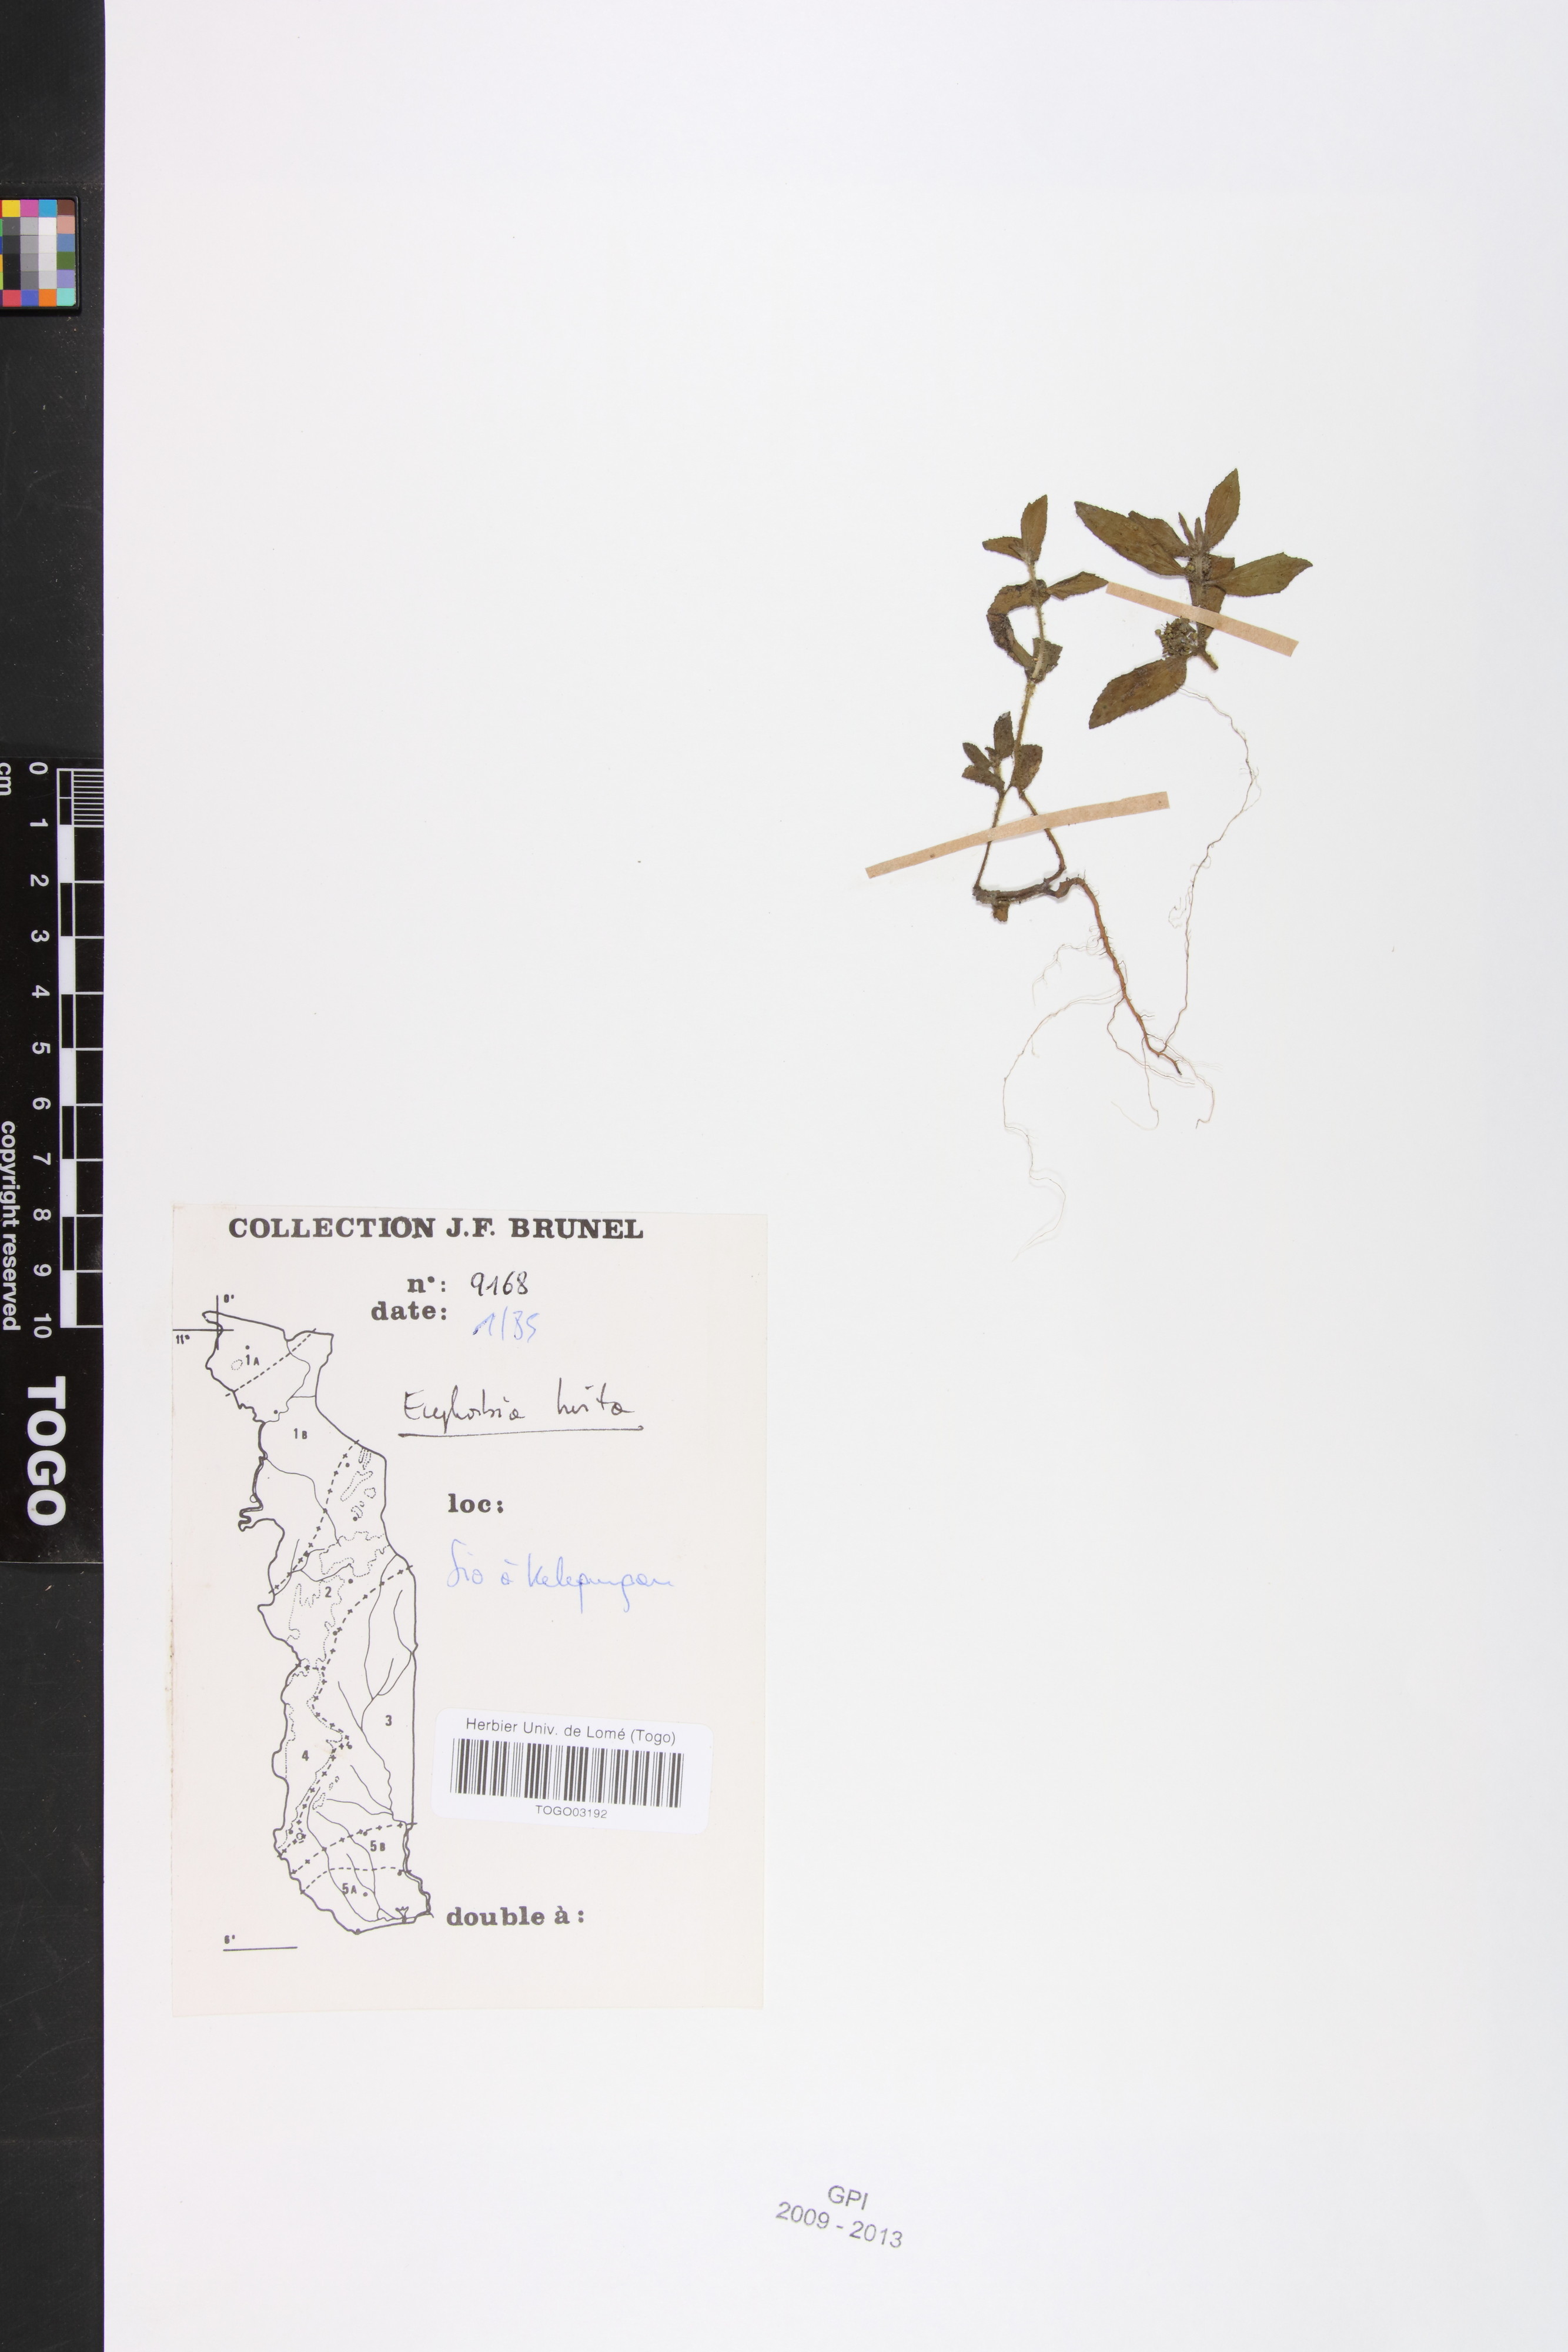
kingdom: Plantae
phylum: Tracheophyta
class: Magnoliopsida
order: Malpighiales
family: Euphorbiaceae
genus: Euphorbia
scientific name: Euphorbia hirta
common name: Pillpod sandmat
